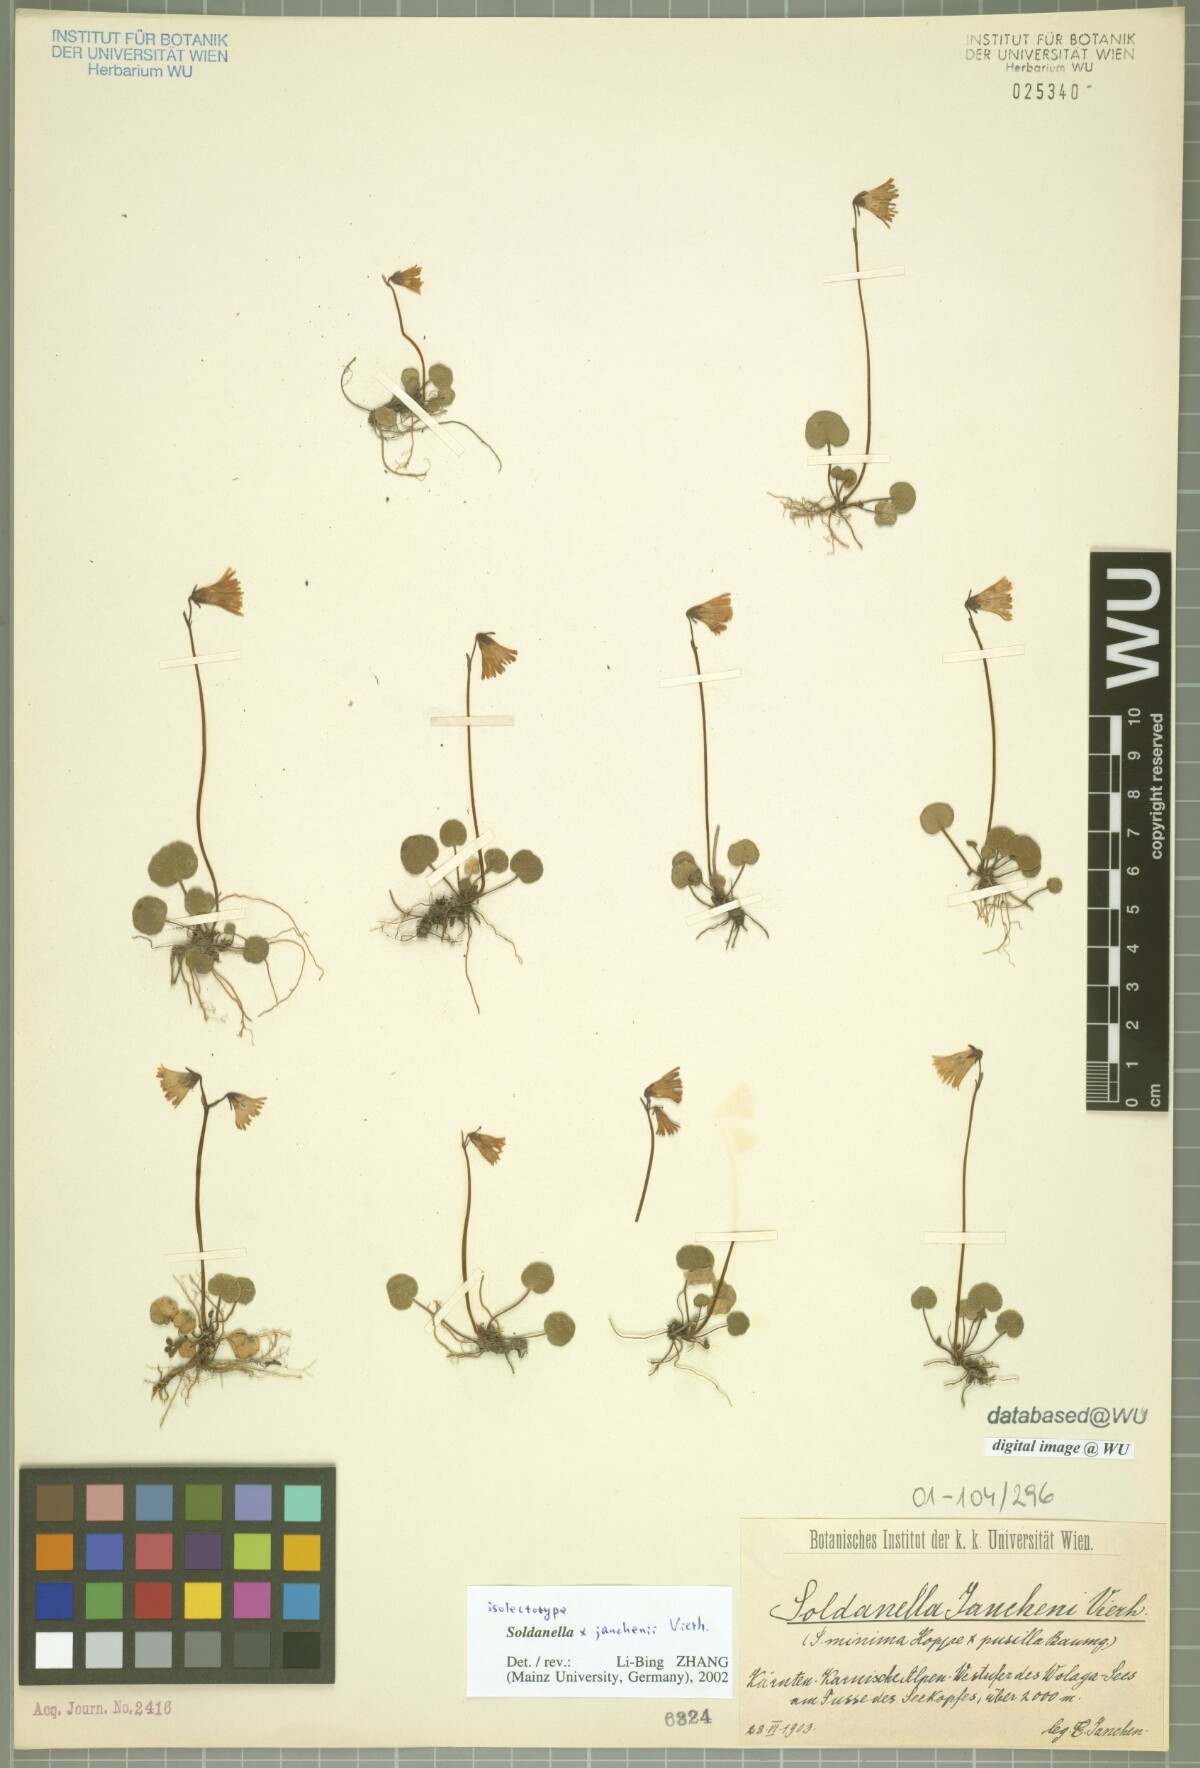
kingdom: Plantae
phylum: Tracheophyta
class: Magnoliopsida
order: Ericales
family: Primulaceae
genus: Soldanella
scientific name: Soldanella janchenii
